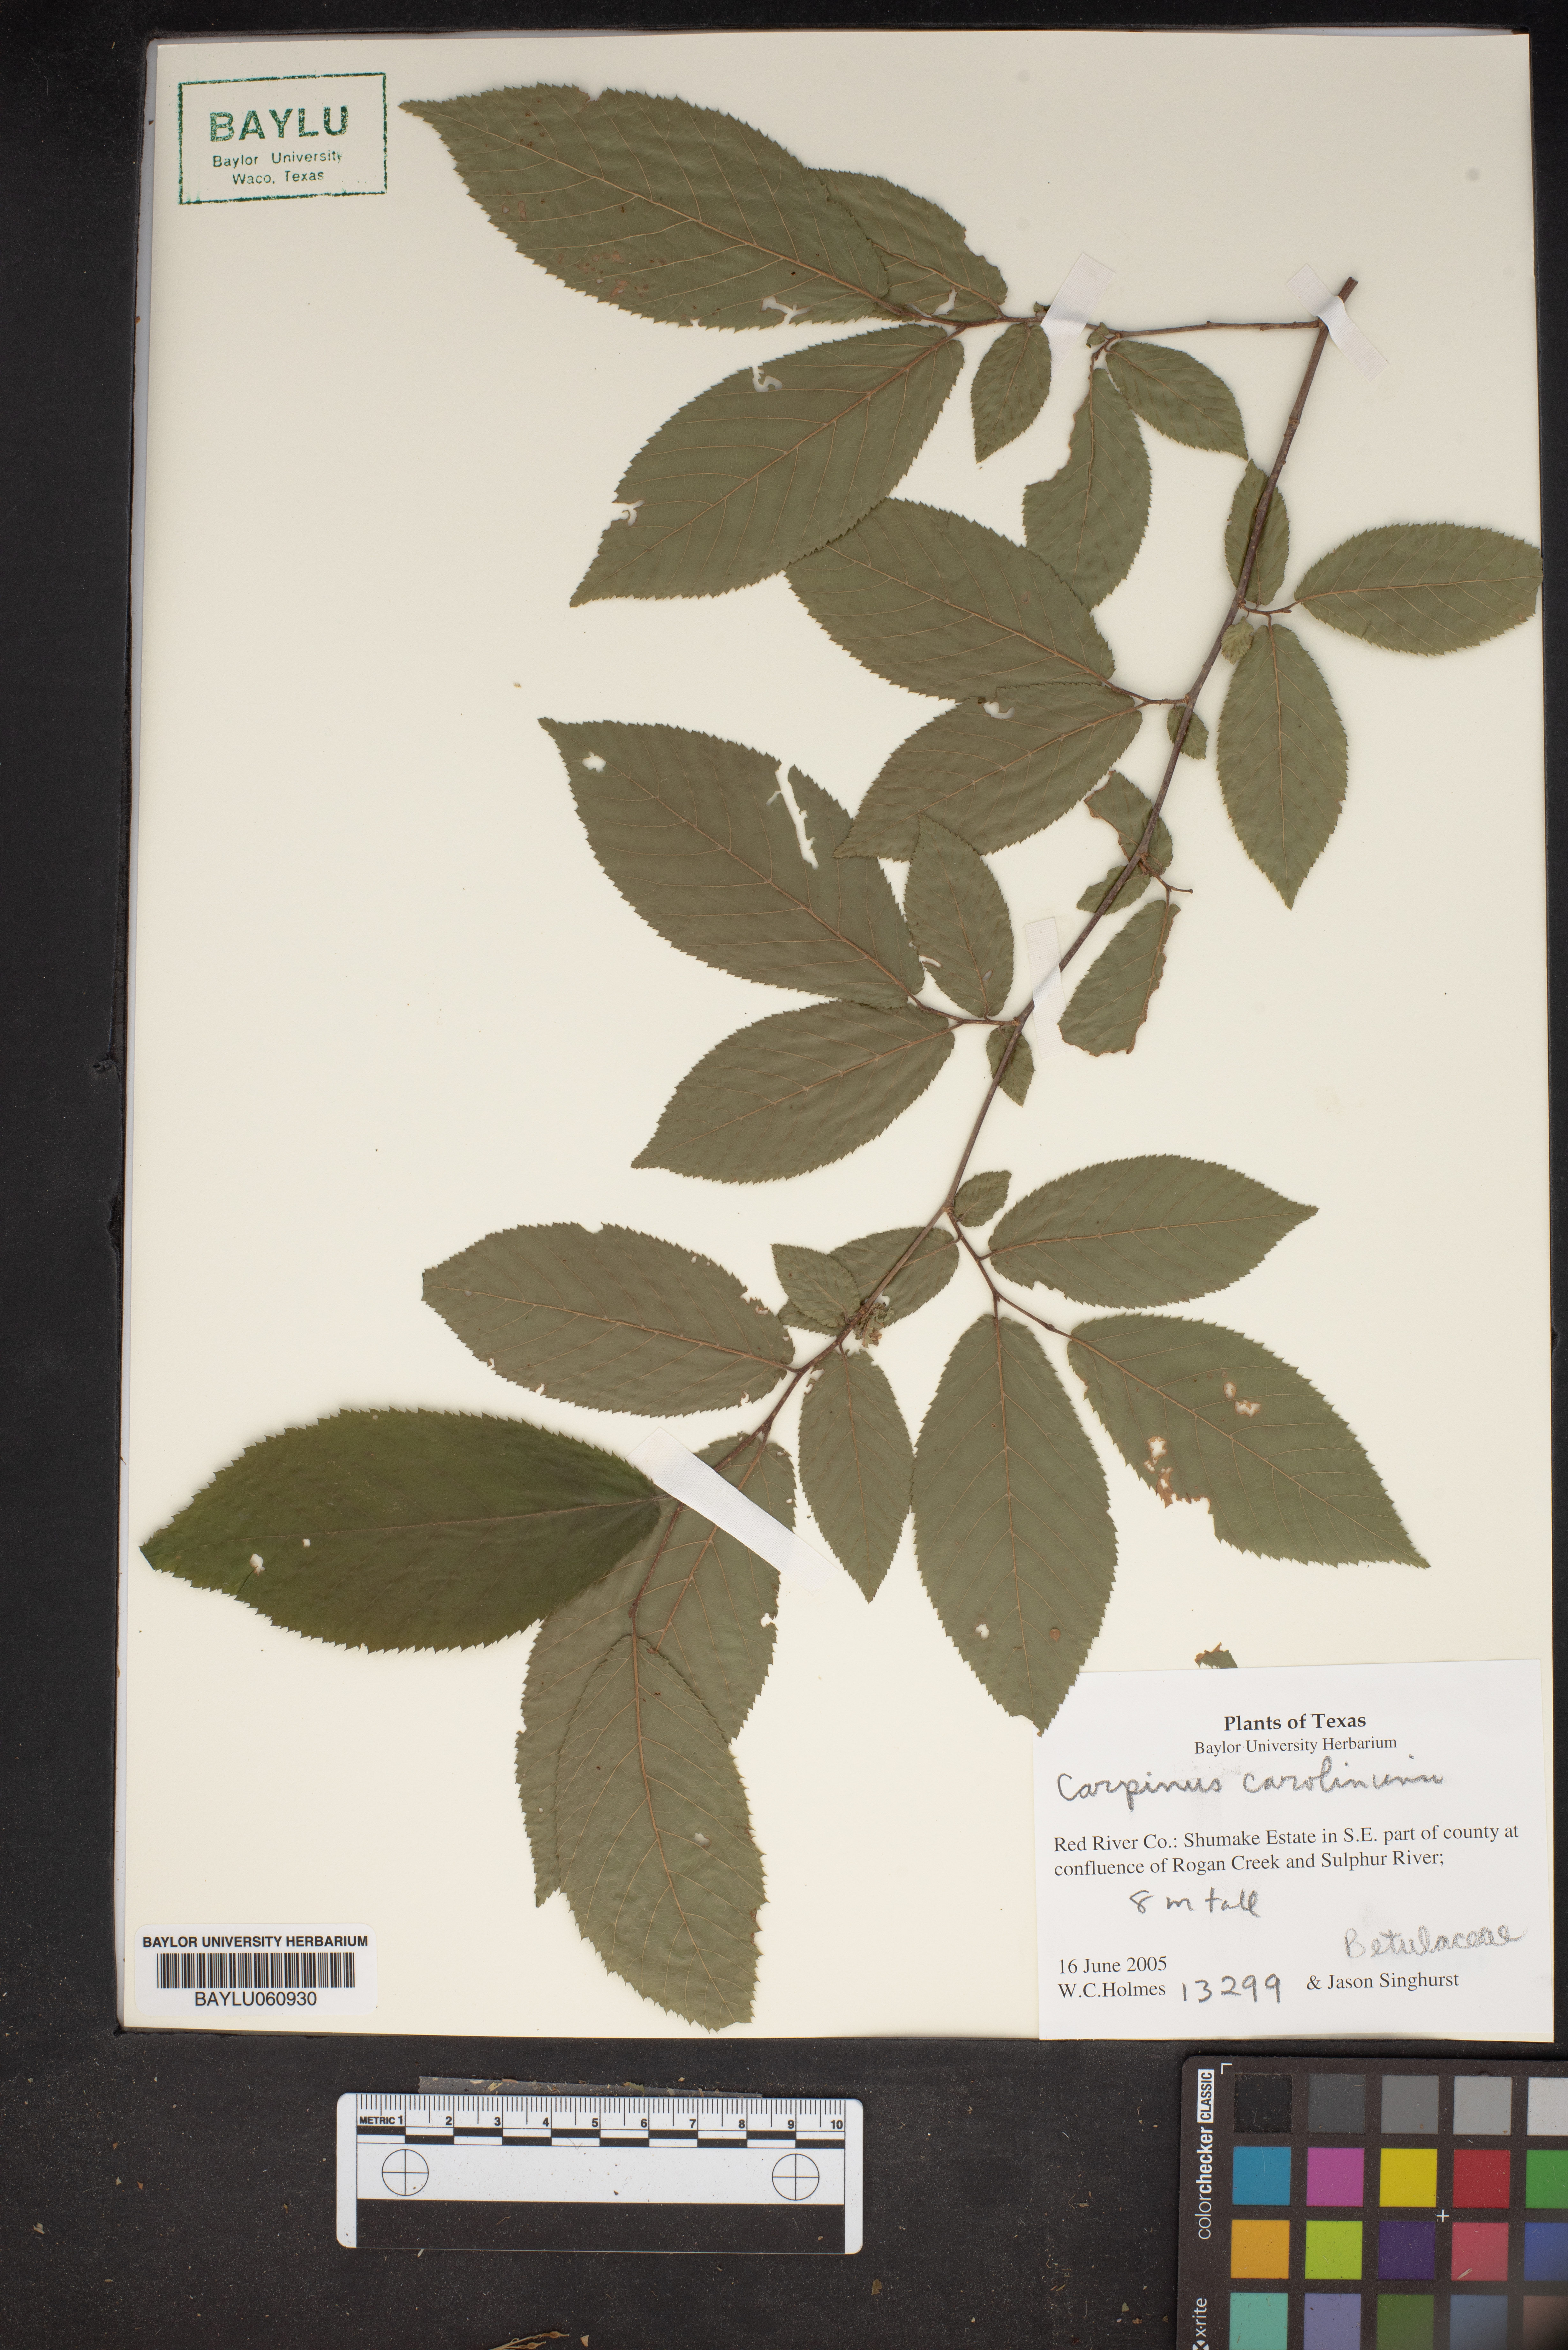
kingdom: Plantae
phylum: Tracheophyta
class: Magnoliopsida
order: Fagales
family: Betulaceae
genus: Carpinus
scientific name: Carpinus caroliniana
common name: American hornbeam
